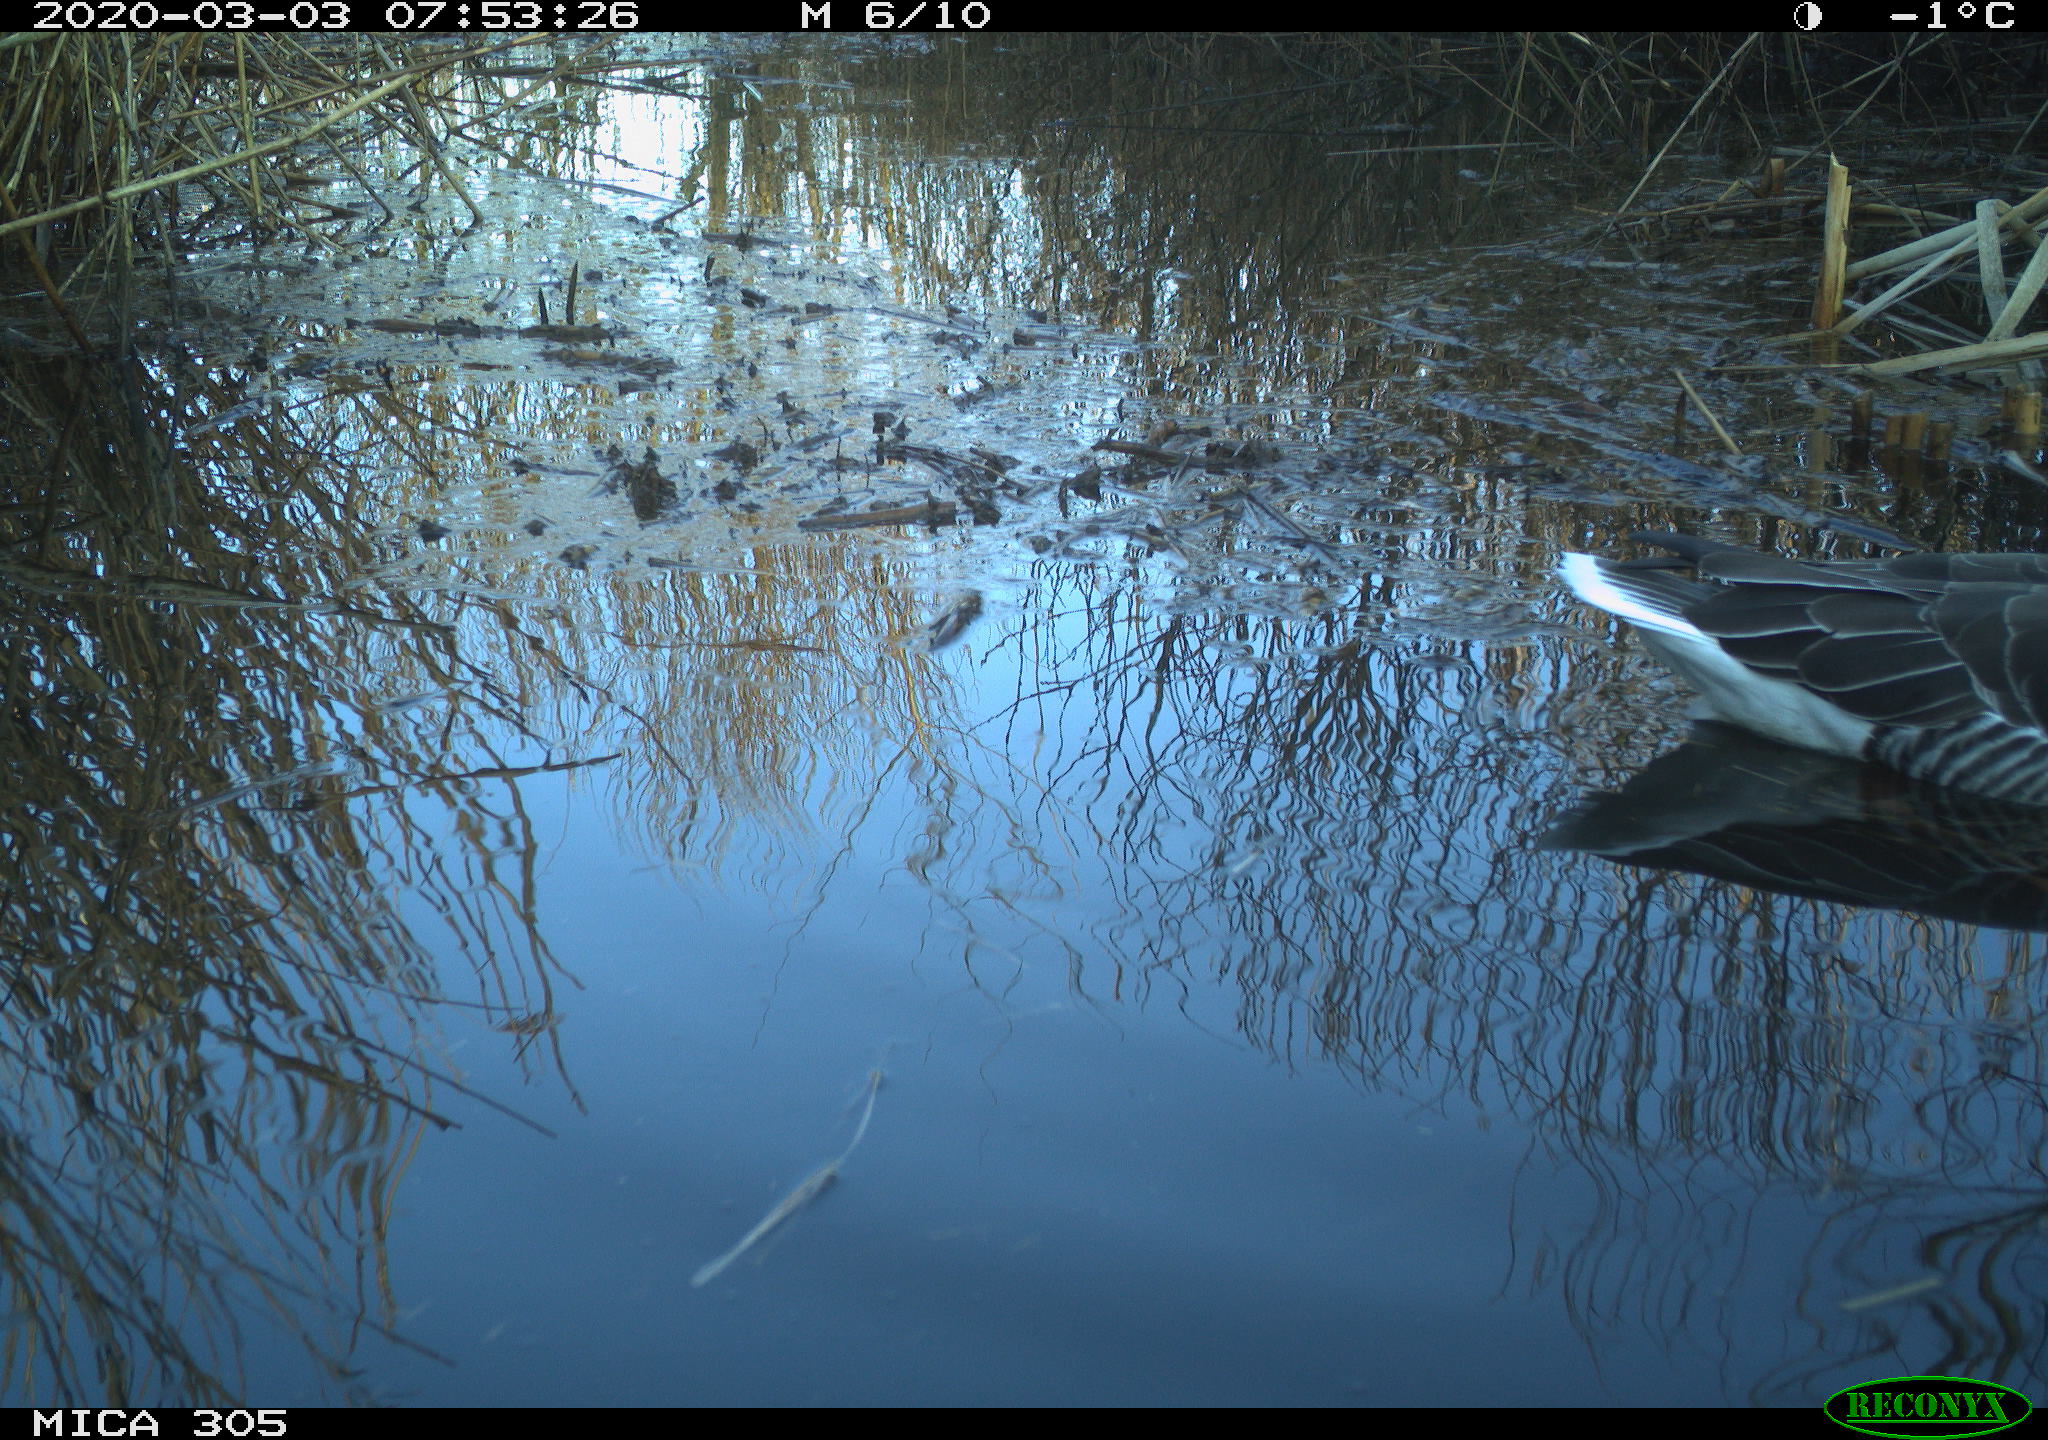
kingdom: Animalia
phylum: Chordata
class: Aves
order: Anseriformes
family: Anatidae
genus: Anser
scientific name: Anser anser
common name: Greylag goose
